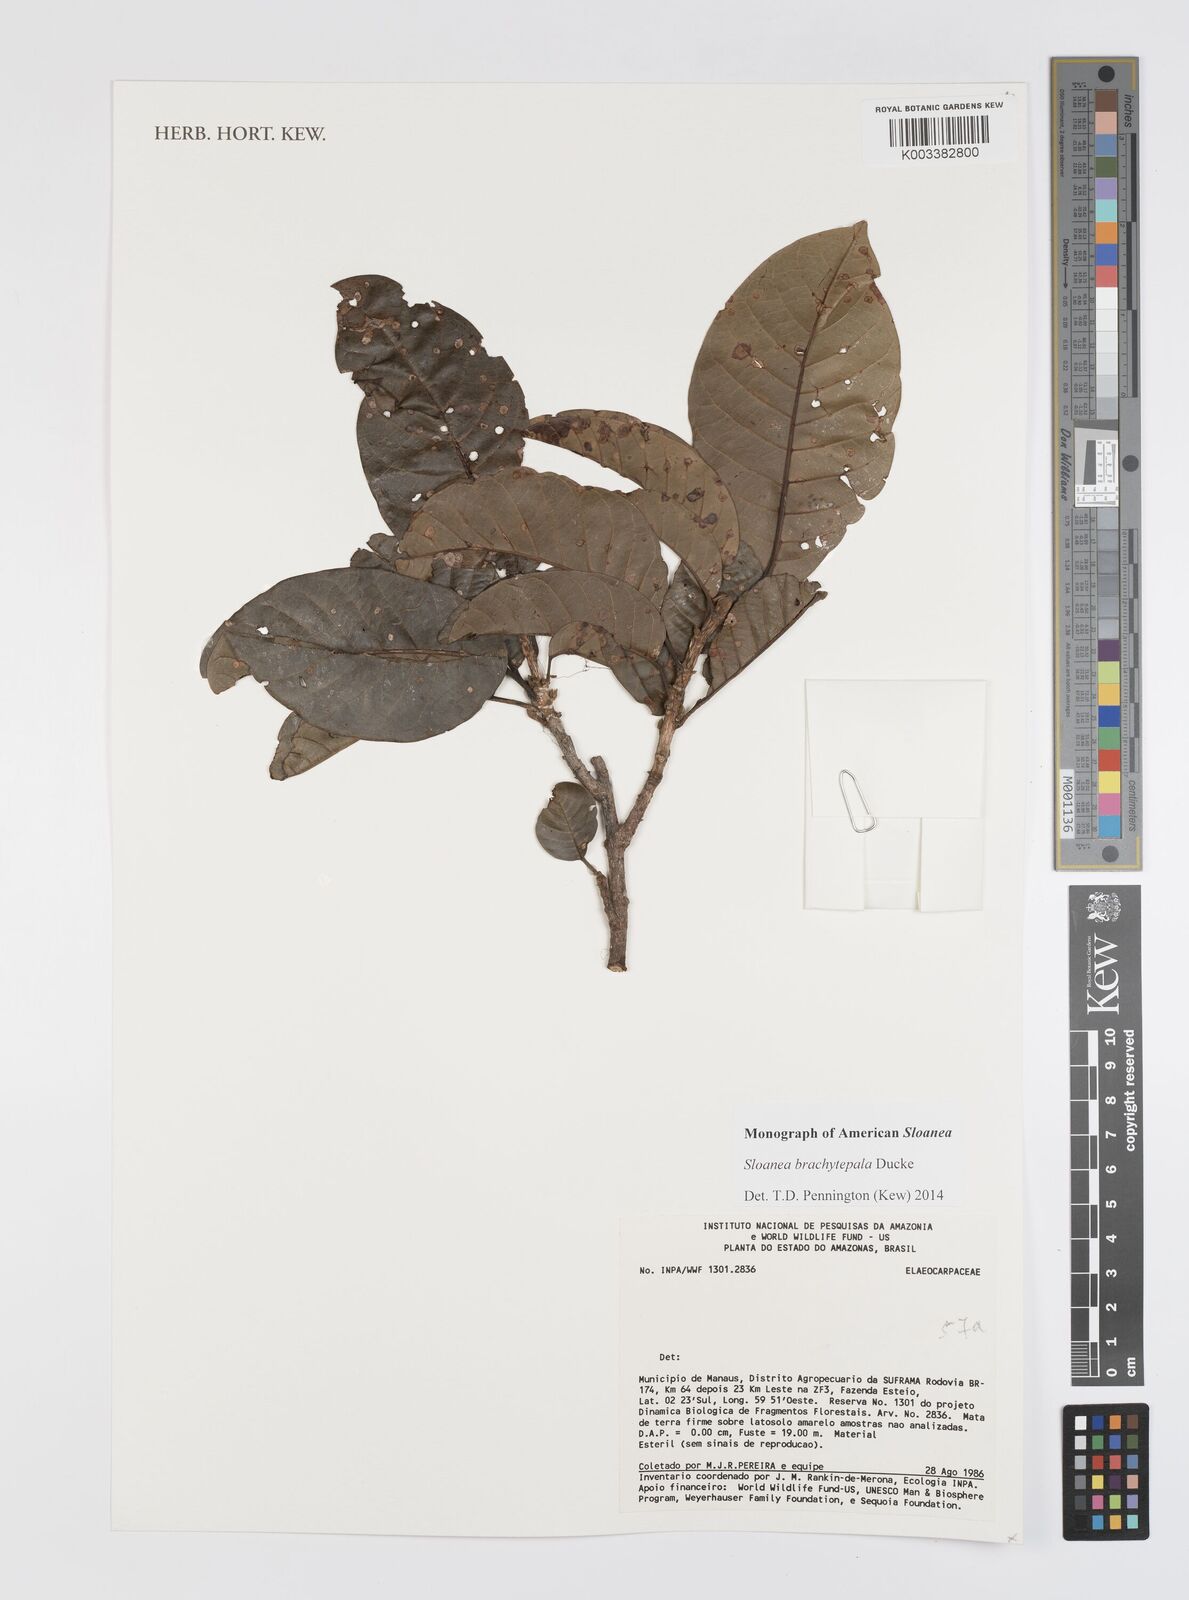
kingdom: Plantae
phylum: Tracheophyta
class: Magnoliopsida
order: Oxalidales
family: Elaeocarpaceae
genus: Sloanea
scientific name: Sloanea brachytepala
